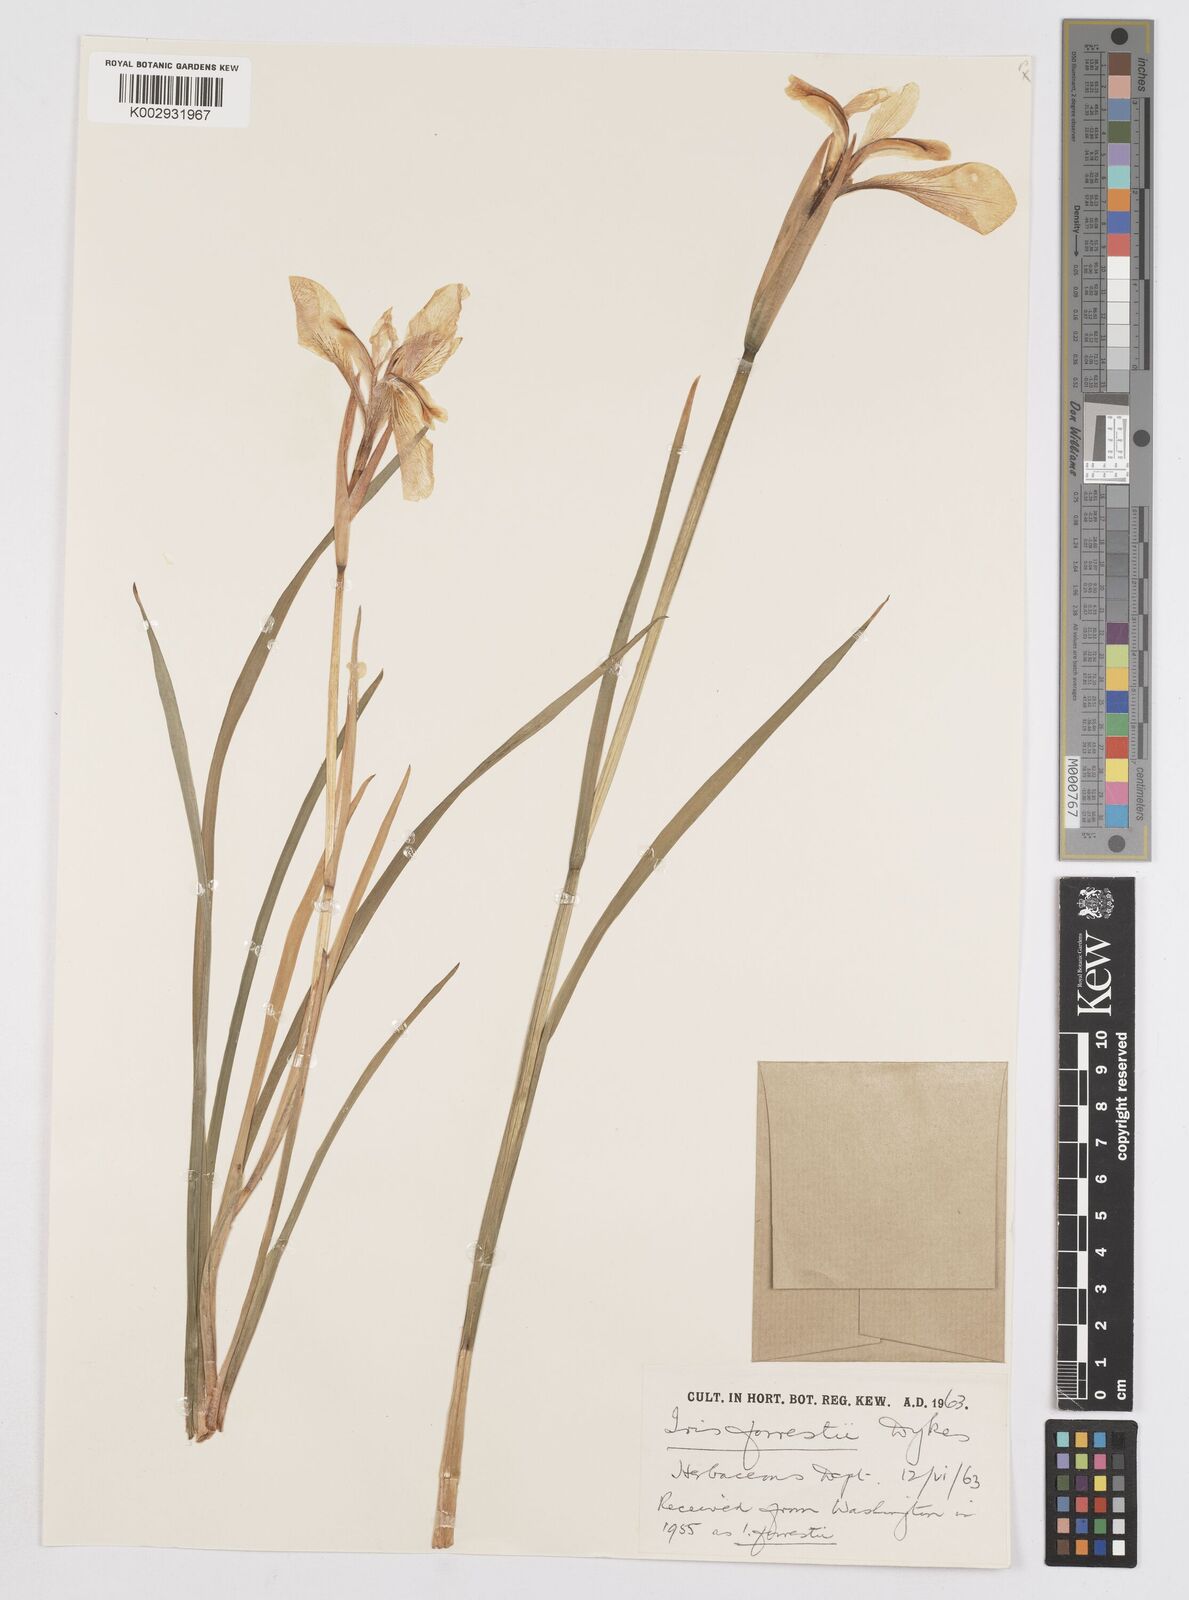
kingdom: Plantae
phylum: Tracheophyta
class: Liliopsida
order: Asparagales
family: Iridaceae
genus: Iris
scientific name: Iris forrestii
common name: Yunnan iris
